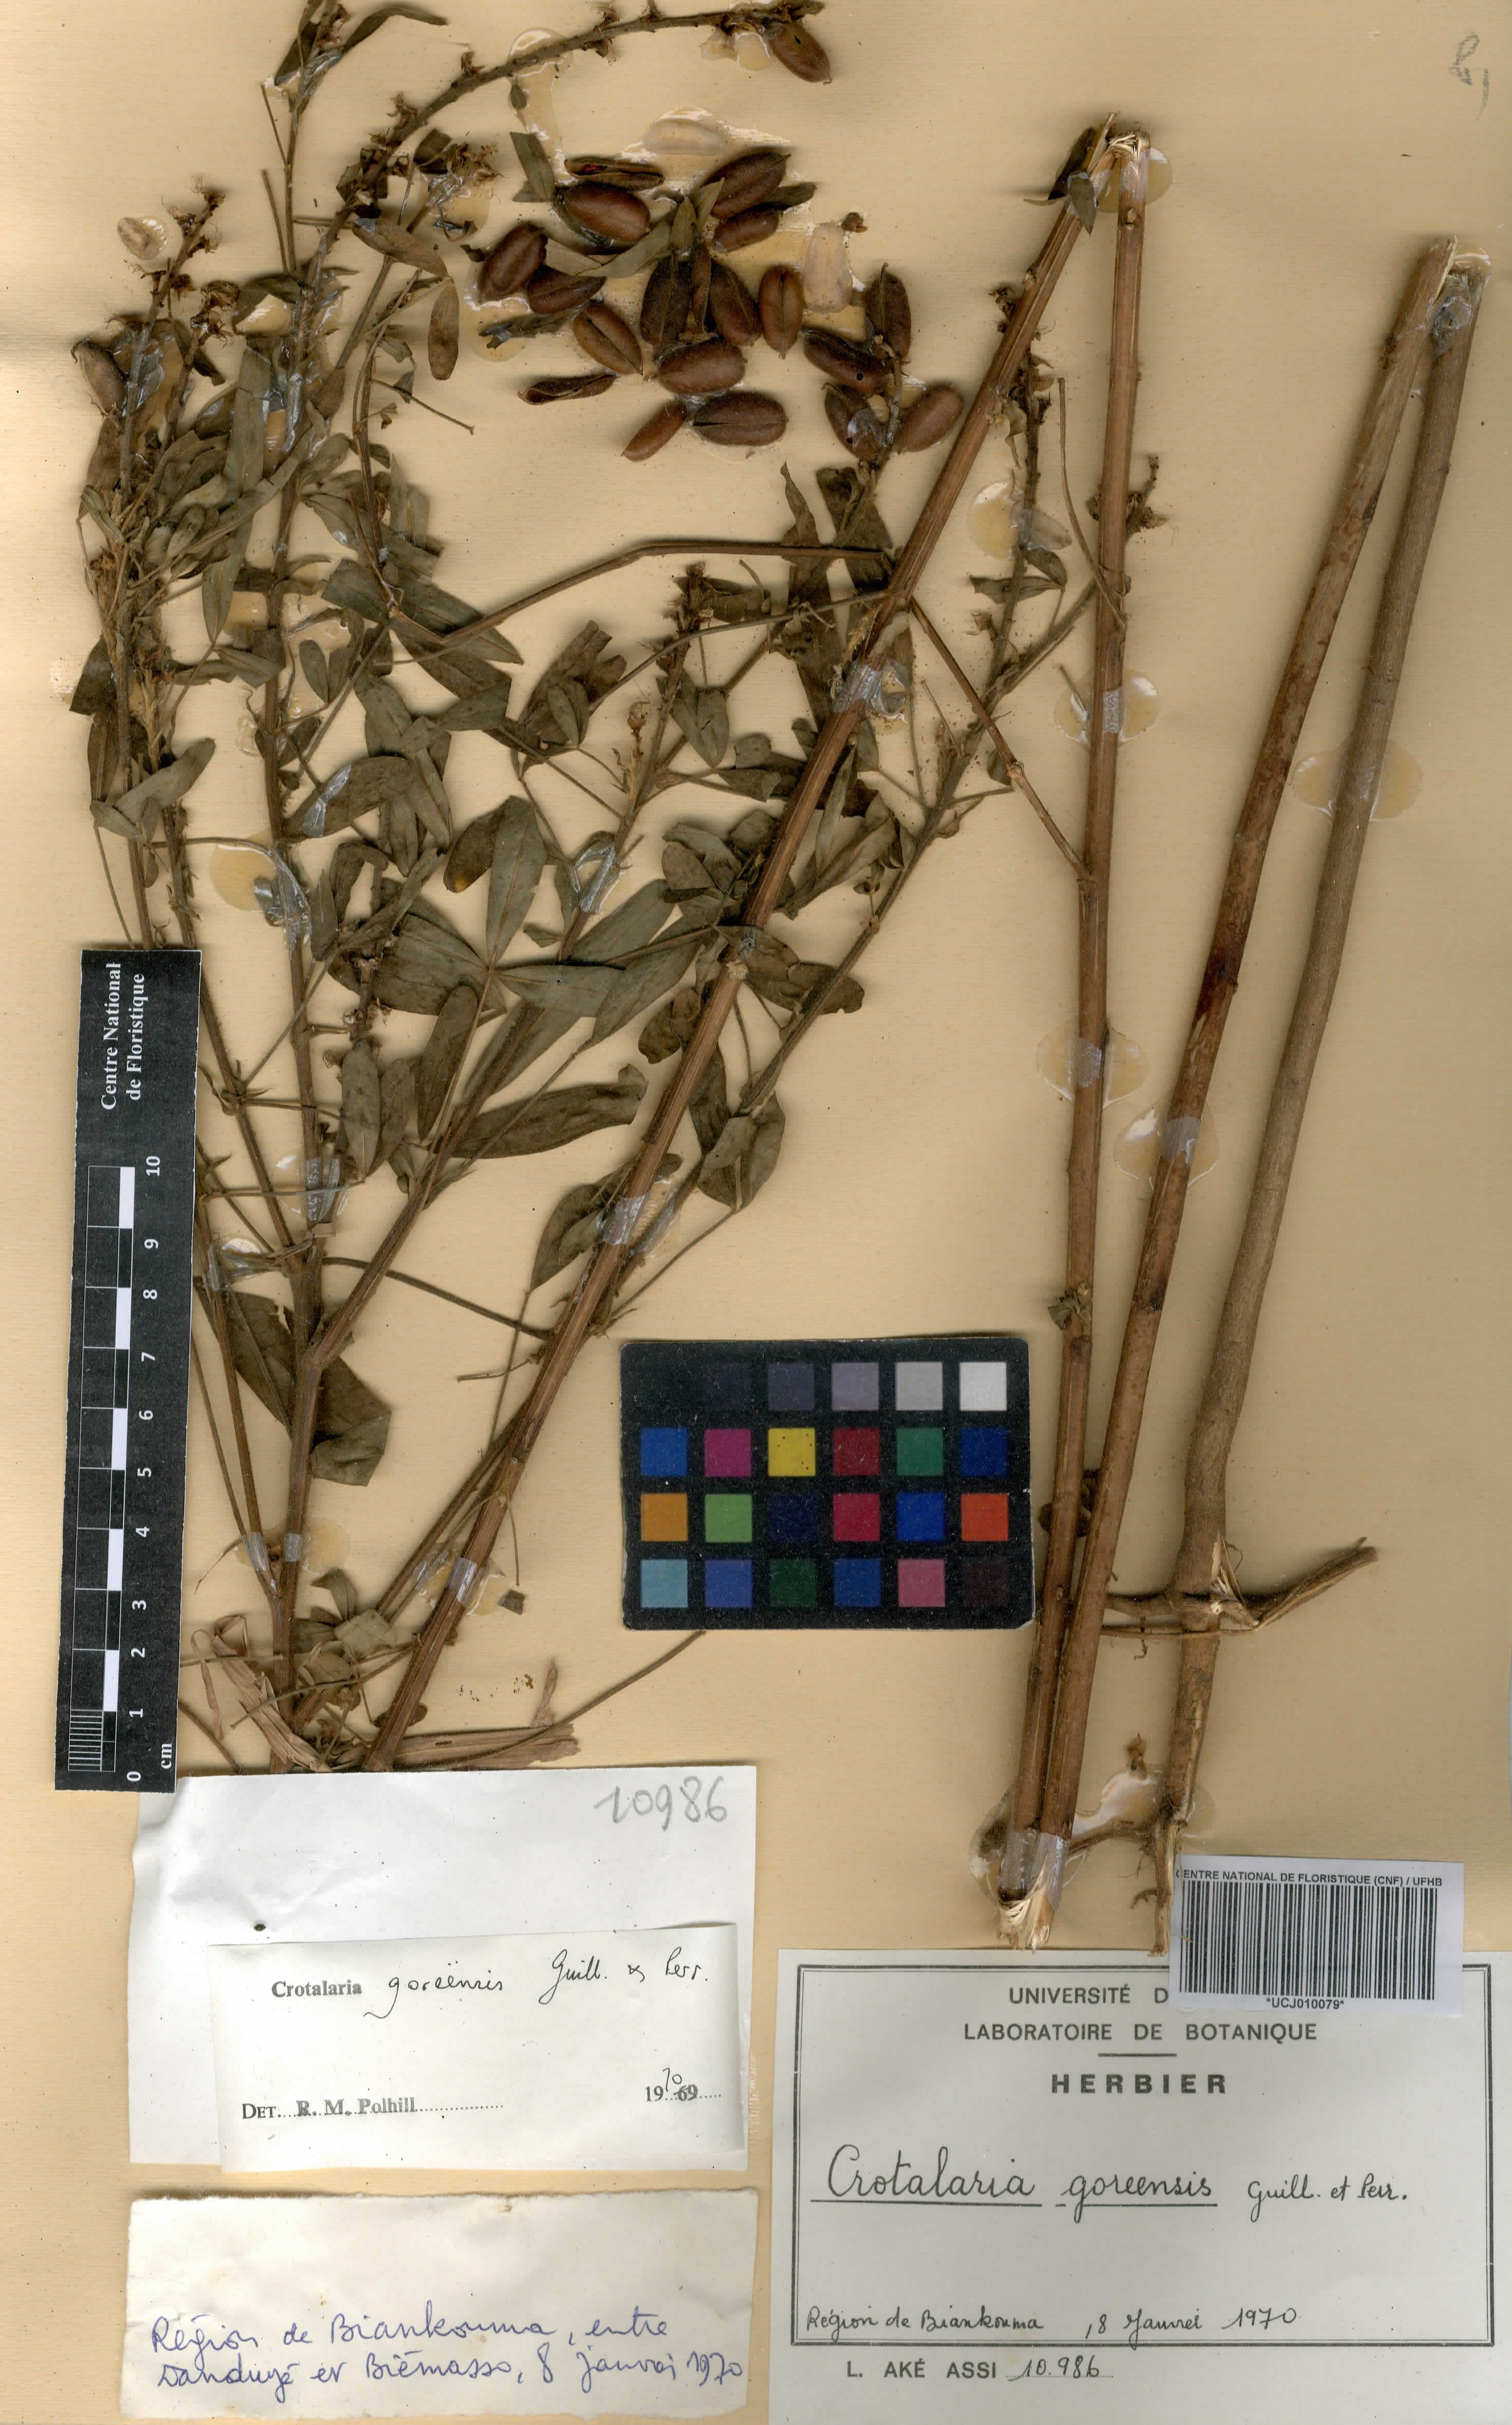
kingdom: Plantae
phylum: Tracheophyta
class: Magnoliopsida
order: Fabales
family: Fabaceae
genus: Crotalaria
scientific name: Crotalaria goreensis
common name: Gambia-pea
